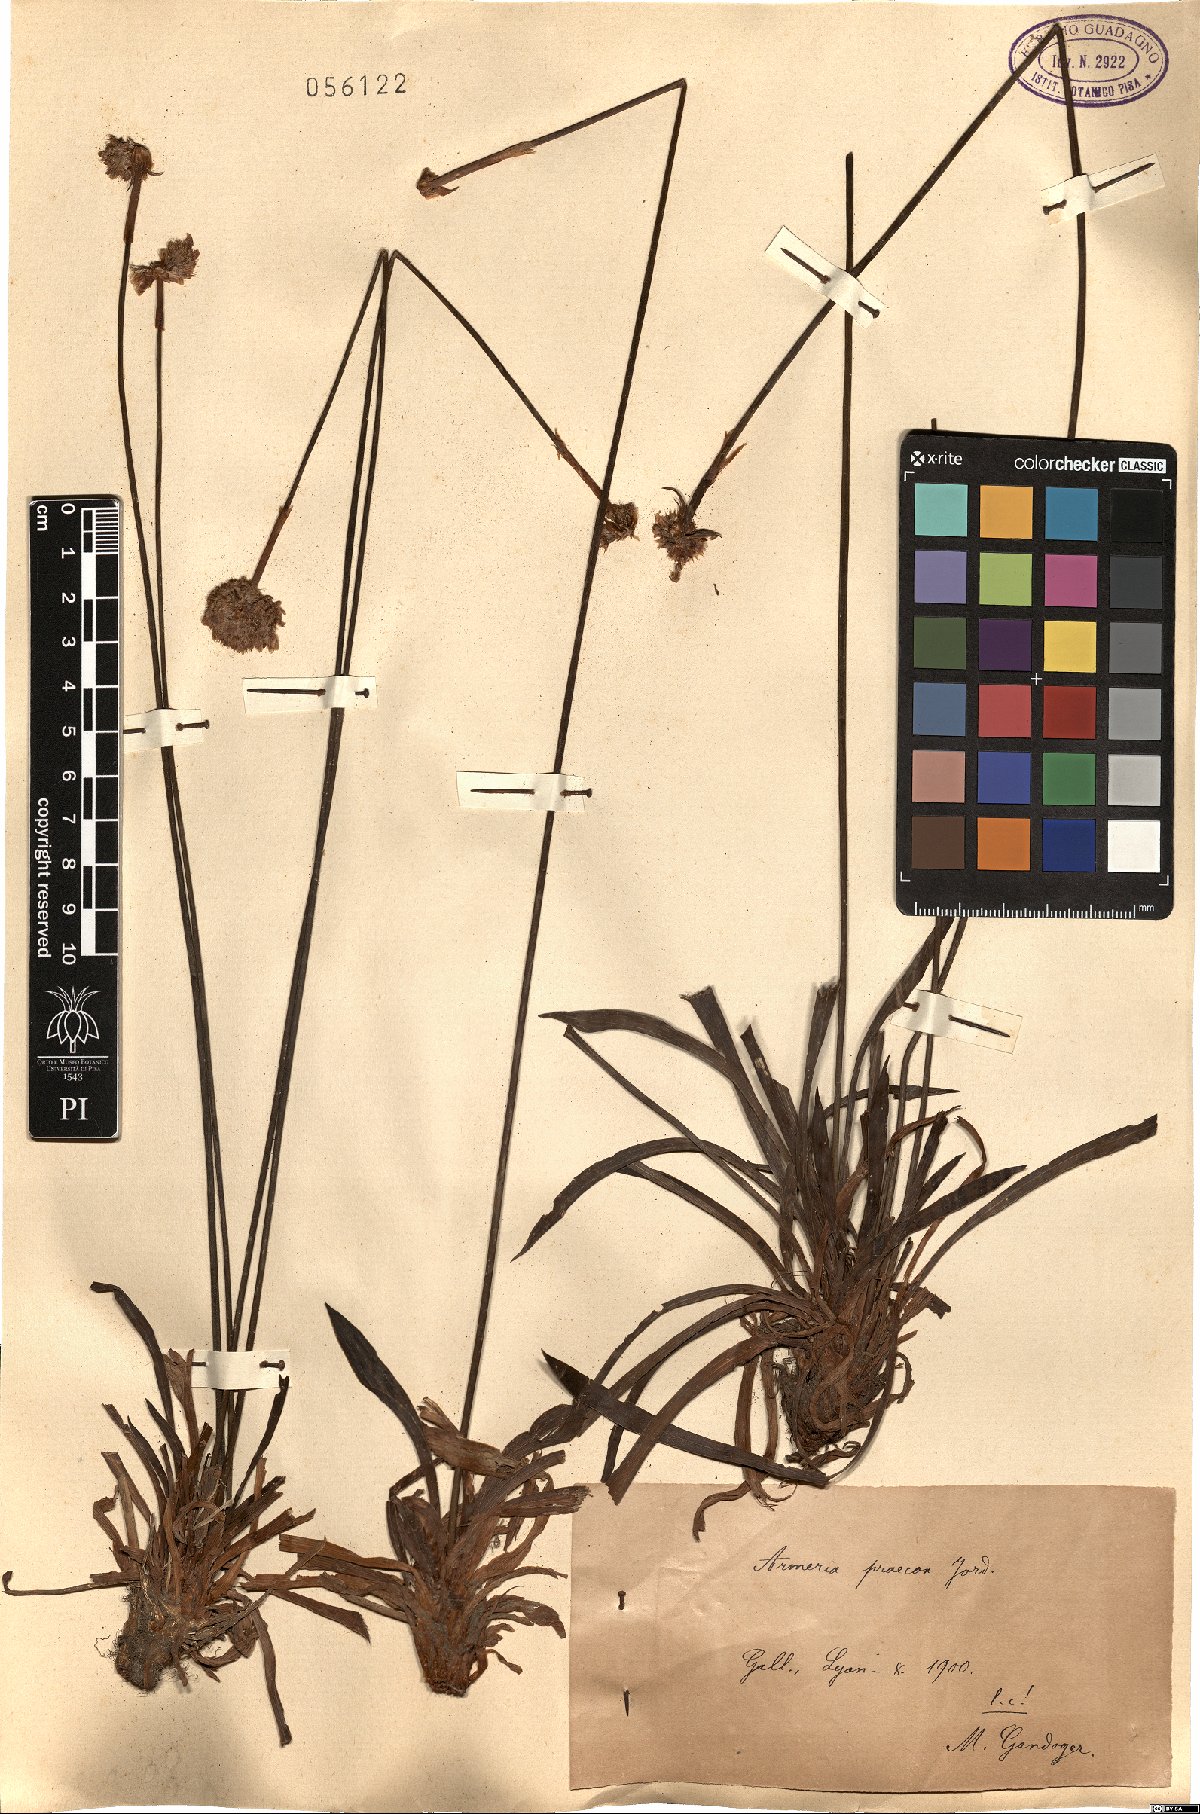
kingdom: Plantae
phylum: Tracheophyta
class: Magnoliopsida
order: Caryophyllales
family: Plumbaginaceae
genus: Armeria
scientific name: Armeria arenaria
